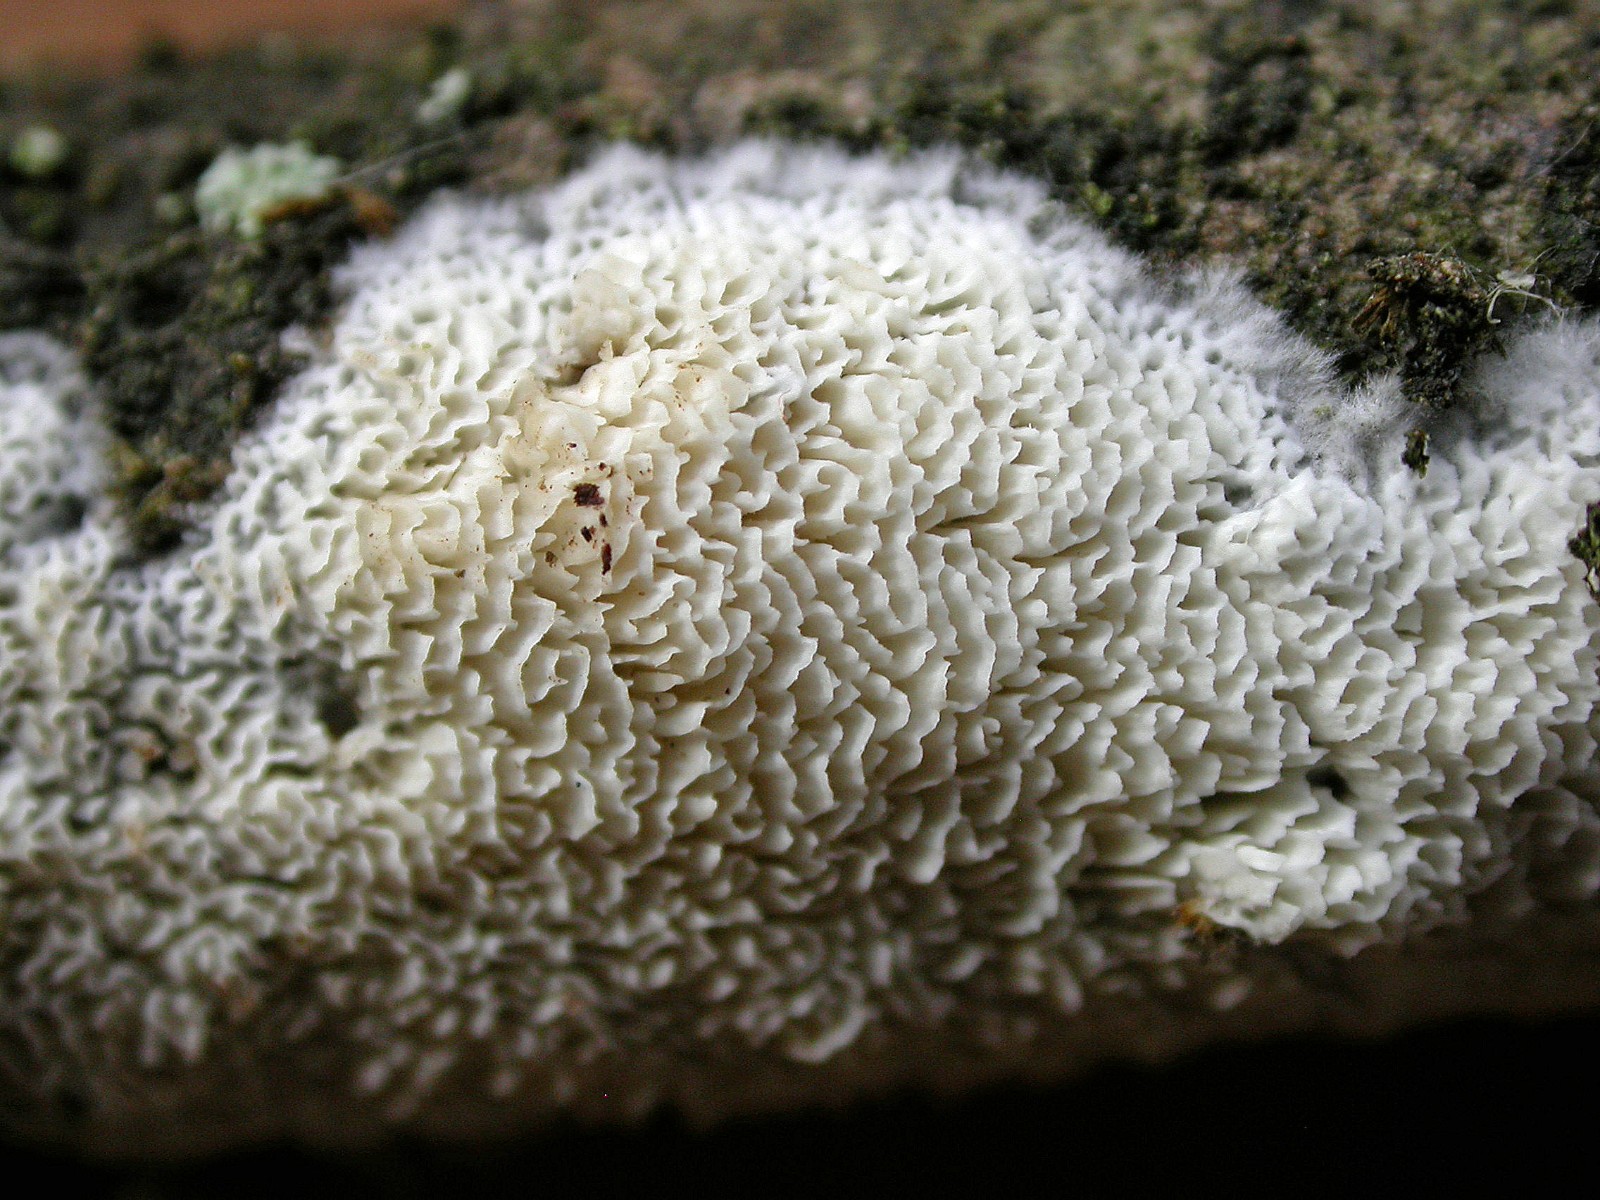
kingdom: Fungi
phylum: Basidiomycota
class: Agaricomycetes
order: Hymenochaetales
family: Schizoporaceae
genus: Schizopora
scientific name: Schizopora paradoxa
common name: hvid tandsvamp
